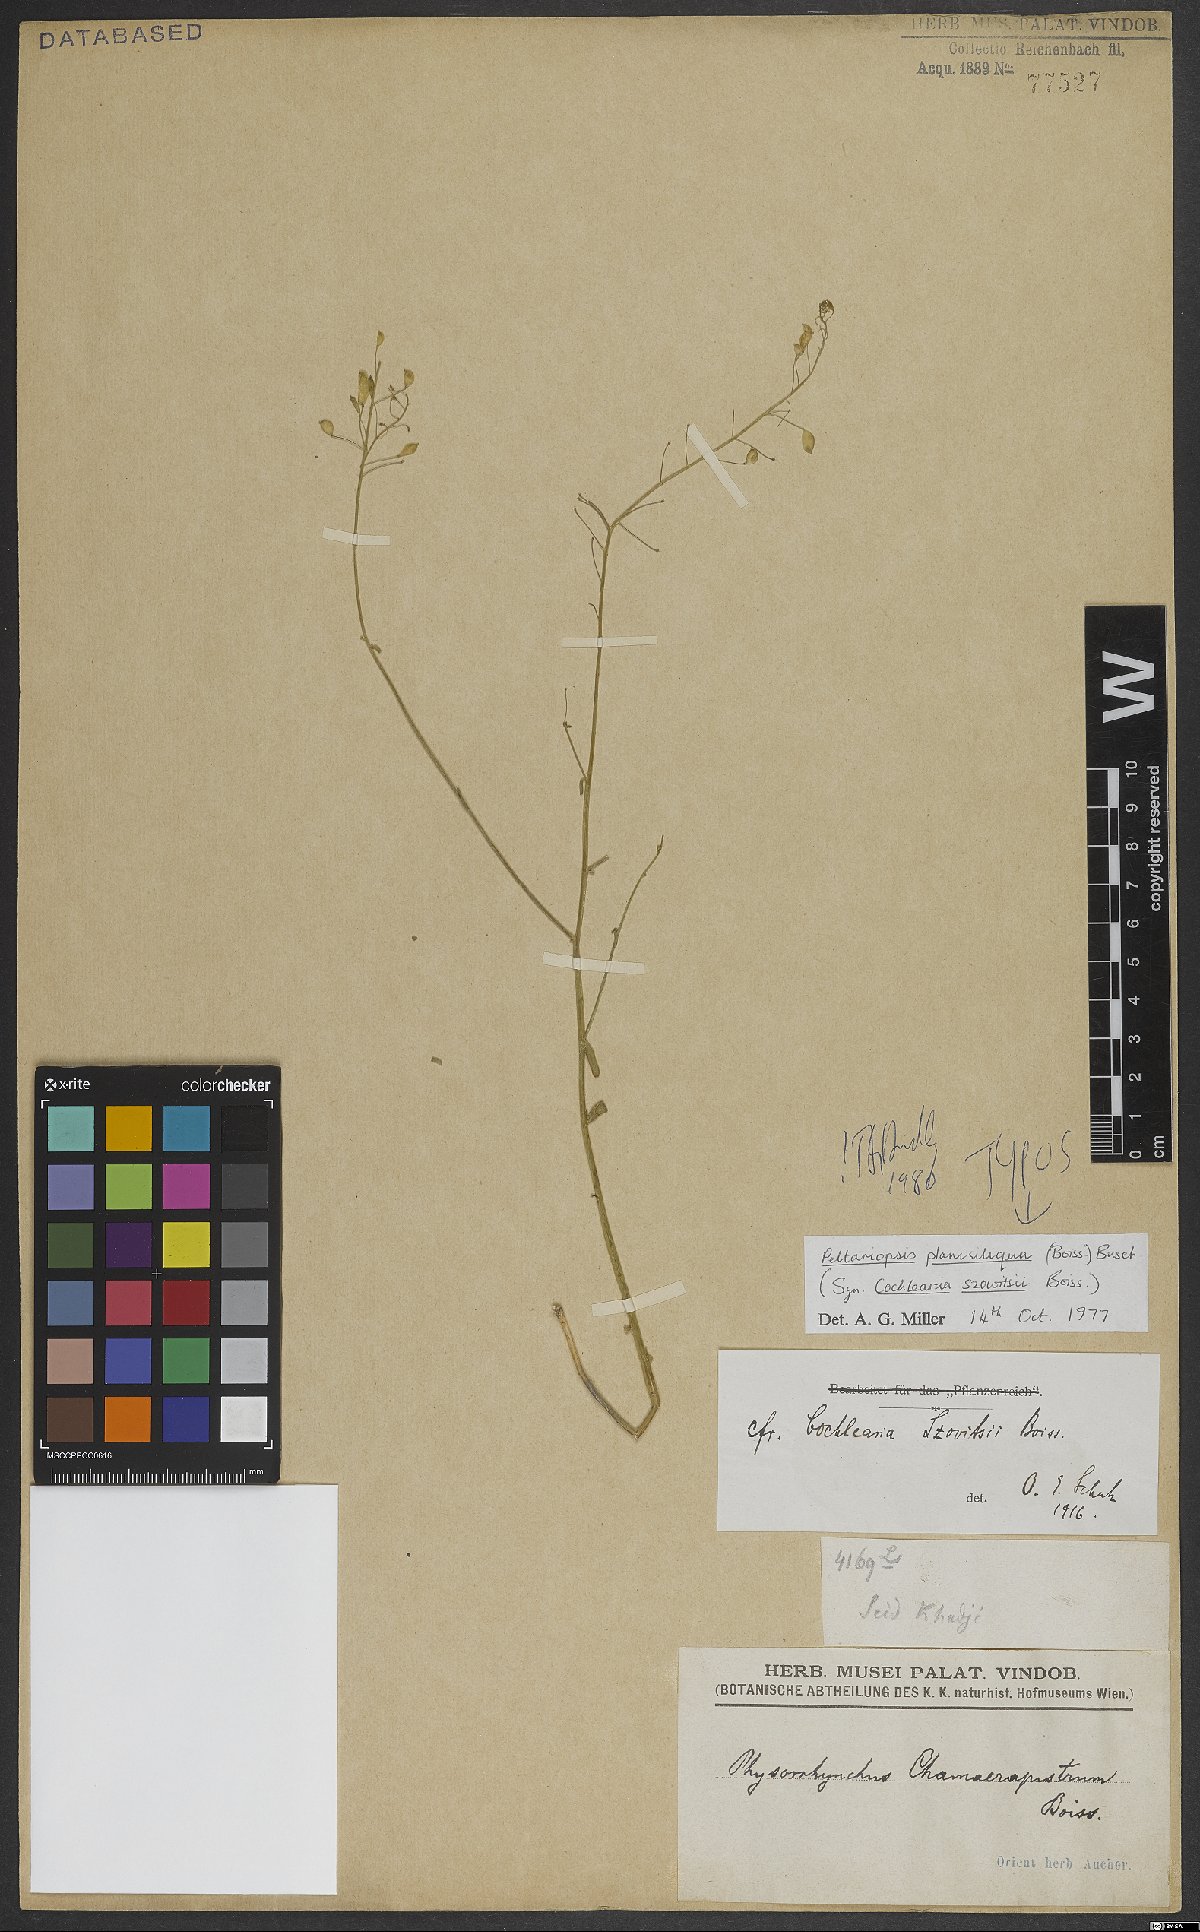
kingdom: Plantae
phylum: Tracheophyta
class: Magnoliopsida
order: Brassicales
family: Brassicaceae
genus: Peltariopsis
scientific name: Peltariopsis planisiliqua
